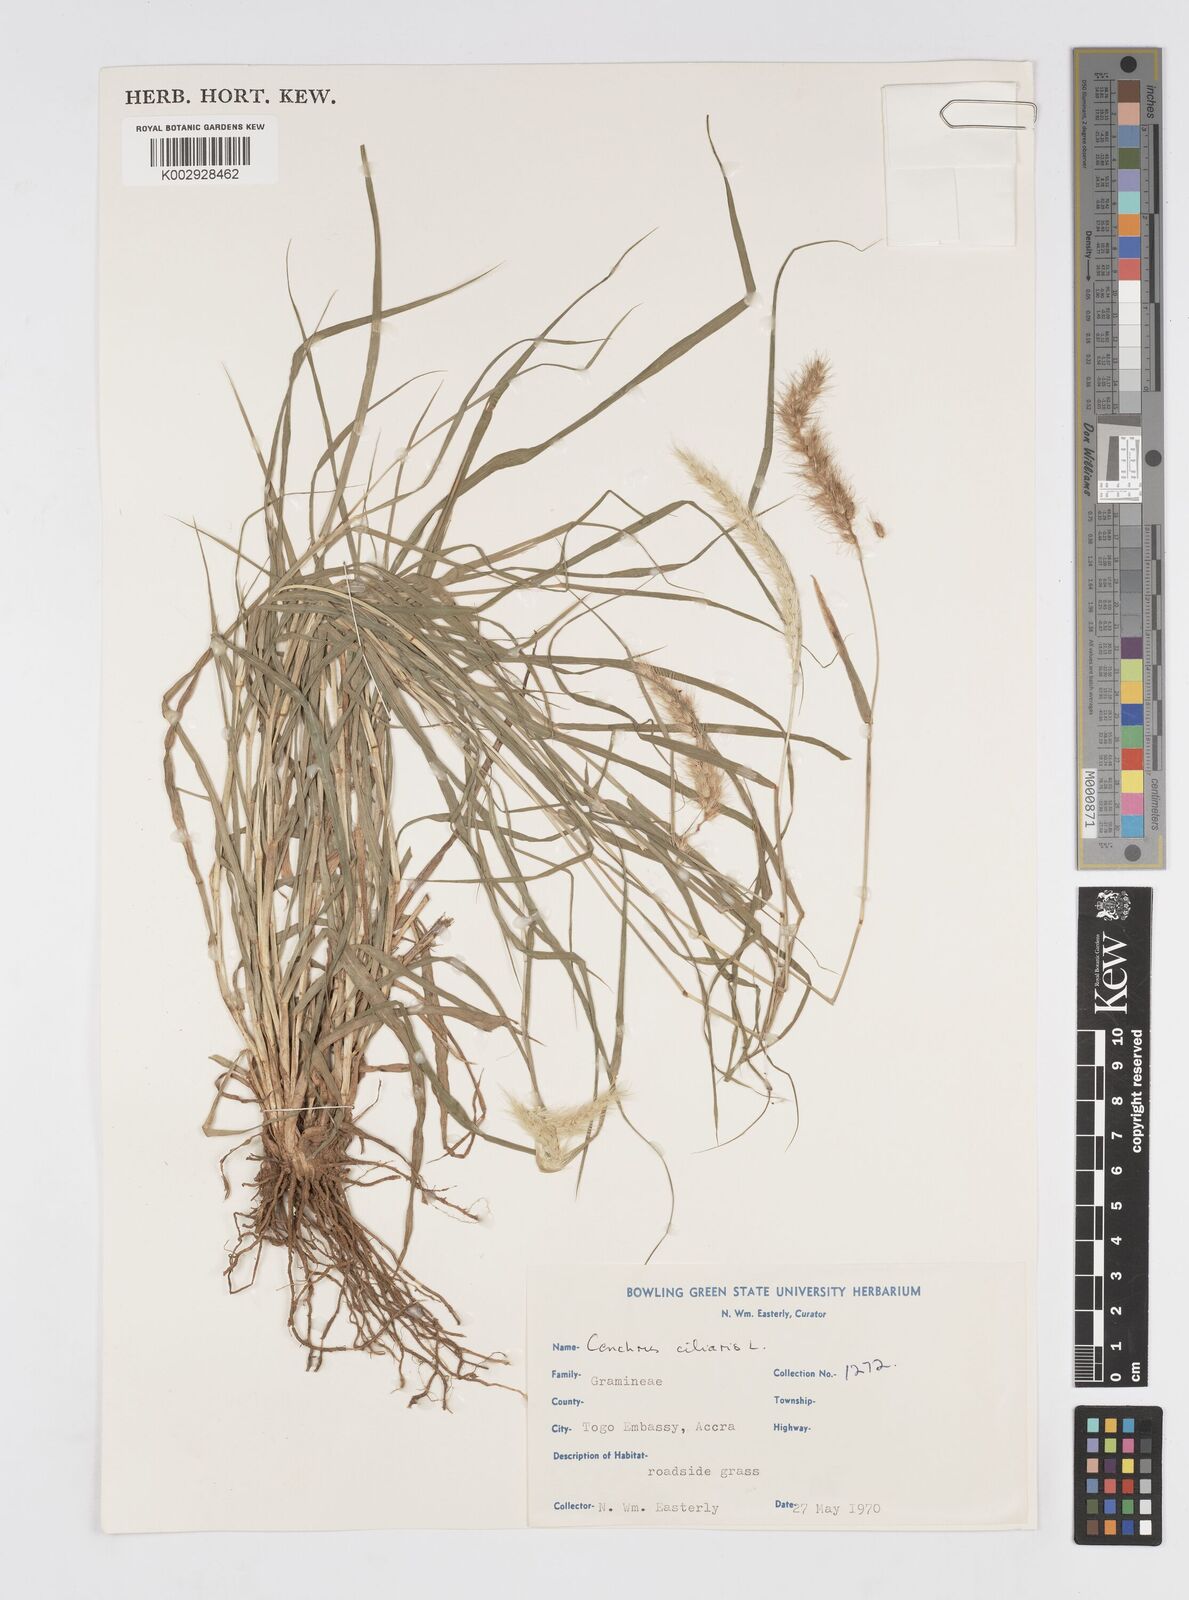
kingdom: Plantae
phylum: Tracheophyta
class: Liliopsida
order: Poales
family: Poaceae
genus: Cenchrus
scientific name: Cenchrus ciliaris
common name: Buffelgrass
